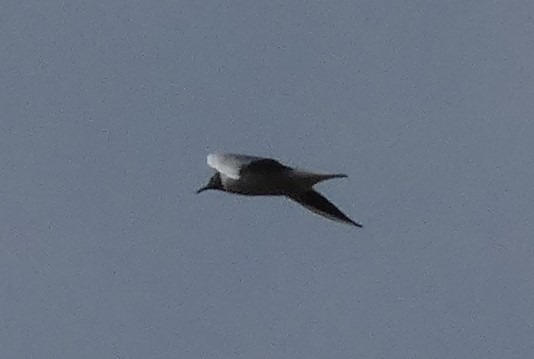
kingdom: Animalia
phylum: Chordata
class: Aves
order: Charadriiformes
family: Laridae
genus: Chroicocephalus
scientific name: Chroicocephalus ridibundus
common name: Hættemåge
